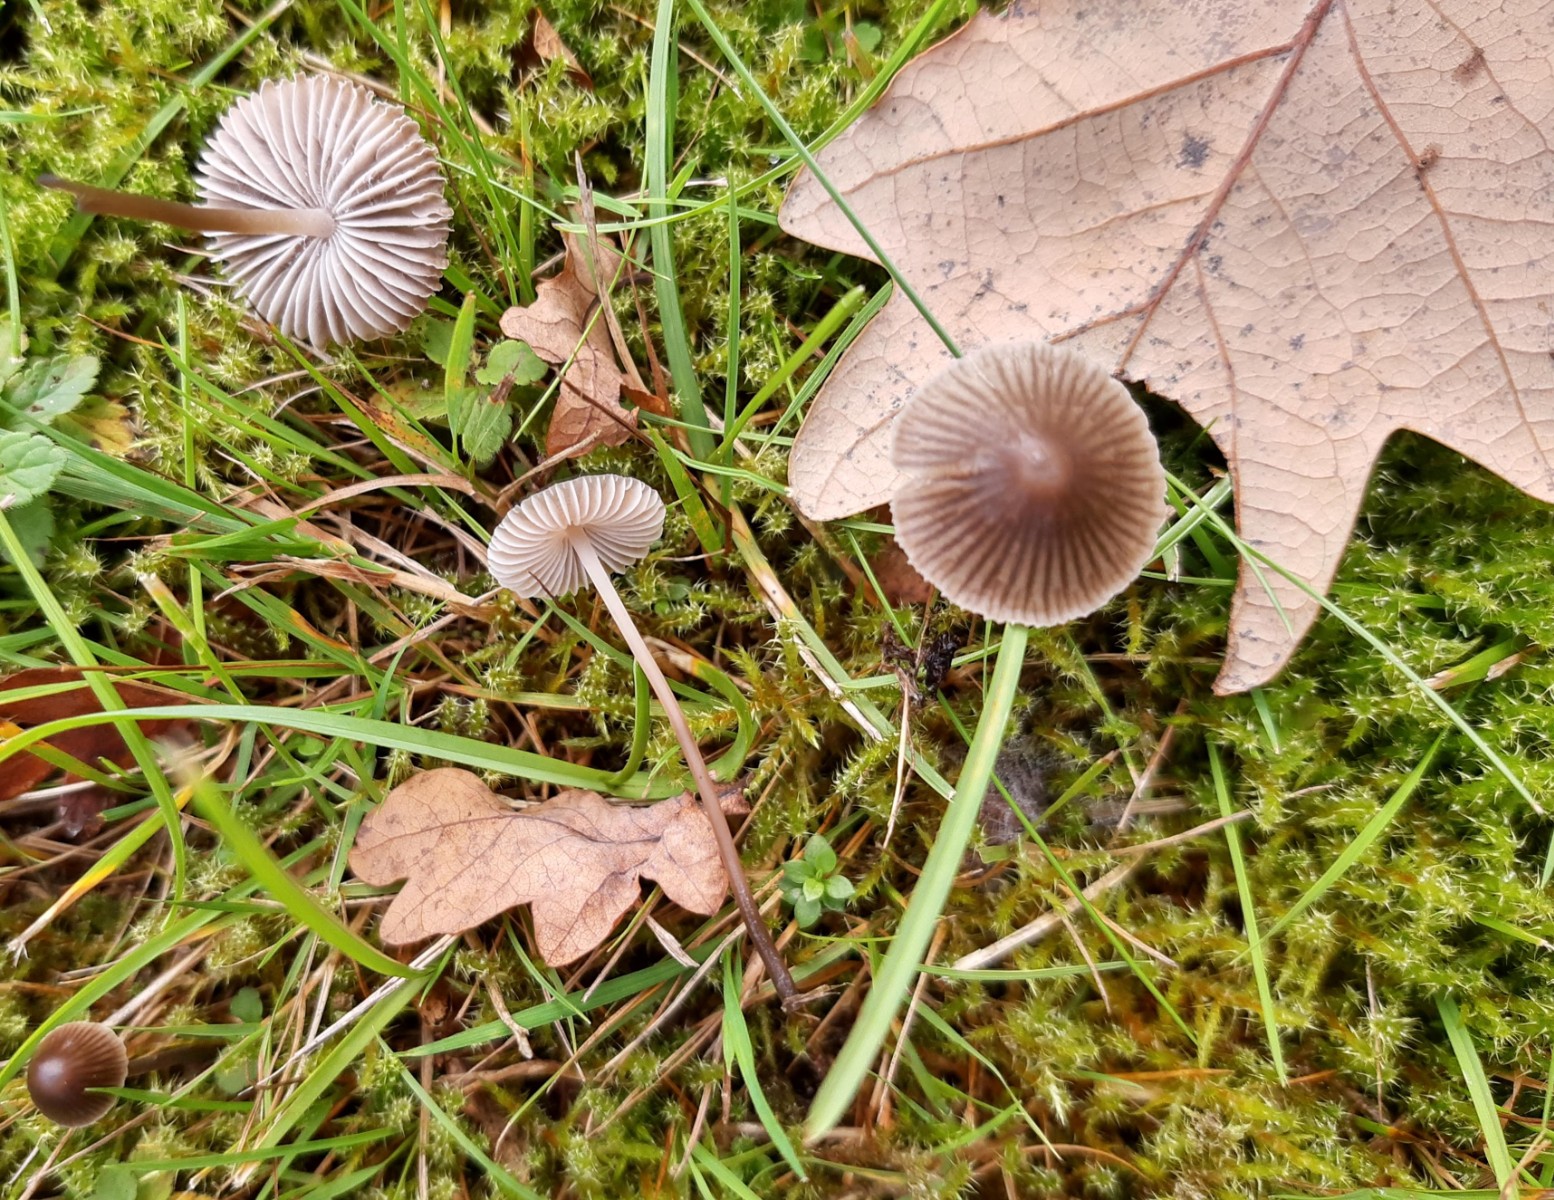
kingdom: Fungi
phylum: Basidiomycota
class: Agaricomycetes
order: Agaricales
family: Mycenaceae
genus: Mycena
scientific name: Mycena leptocephala
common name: klor-huesvamp
